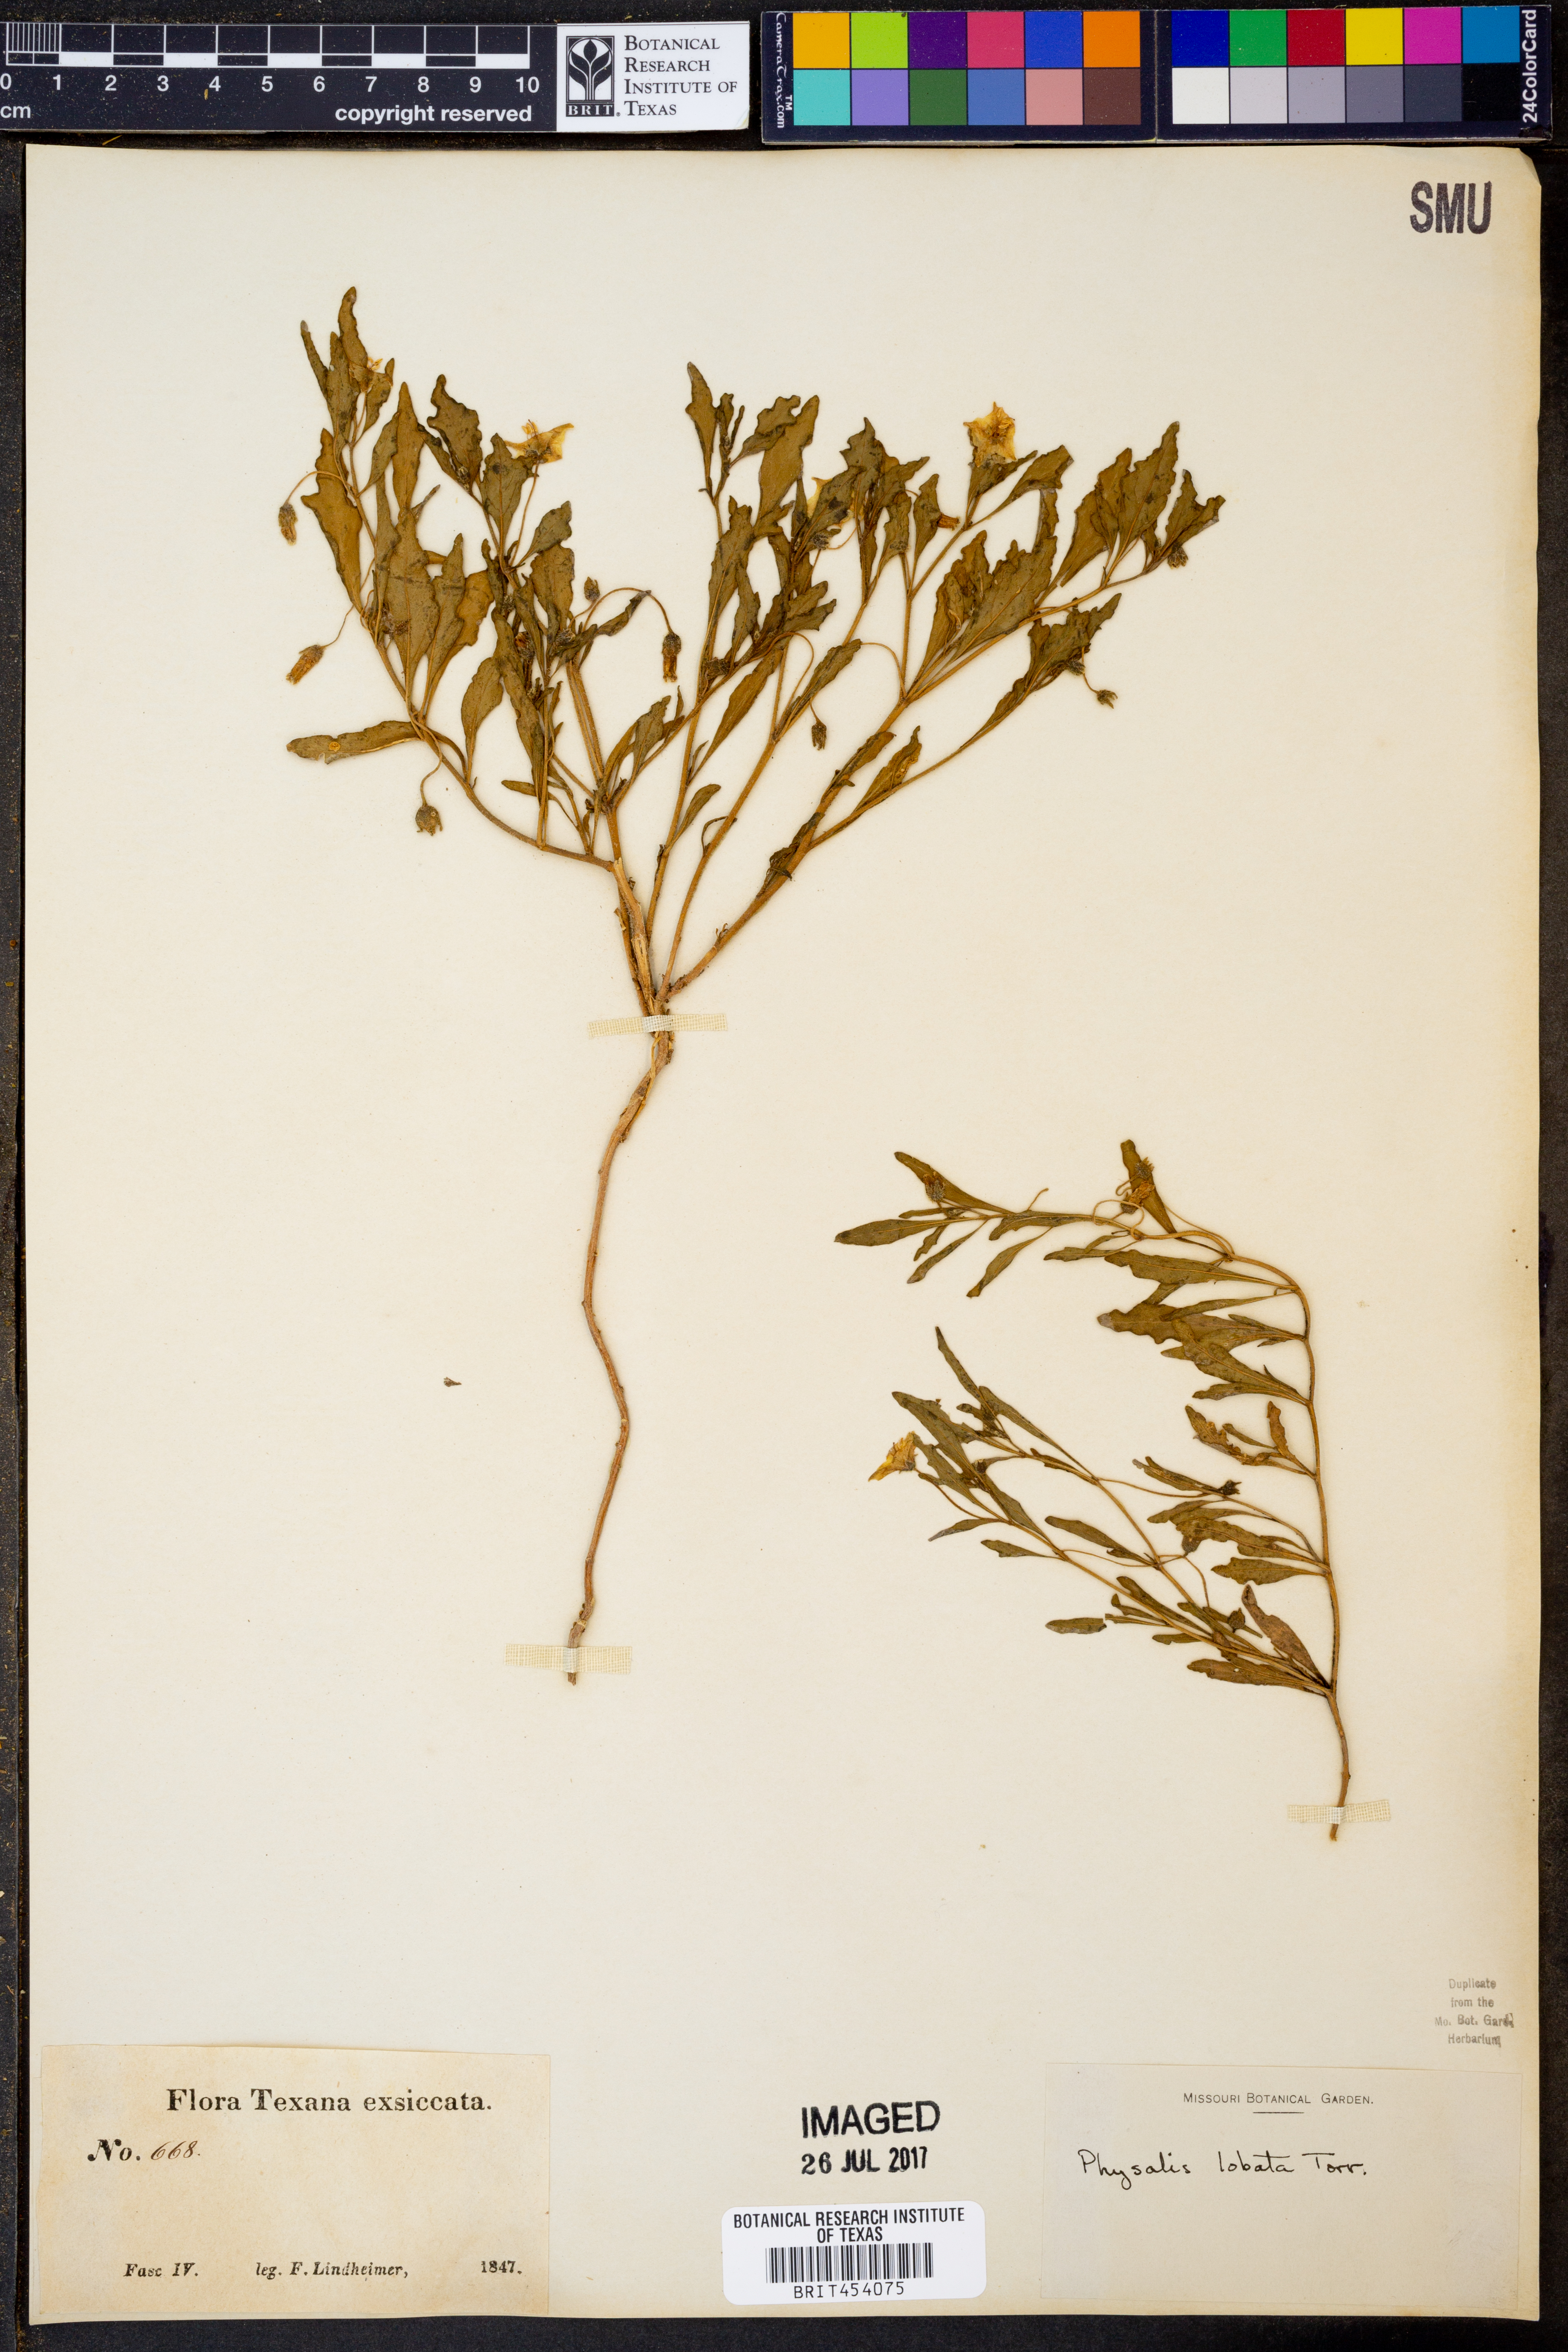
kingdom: Plantae
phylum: Tracheophyta
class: Magnoliopsida
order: Solanales
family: Solanaceae
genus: Quincula
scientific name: Quincula lobata
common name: Purple-ground-cherry
